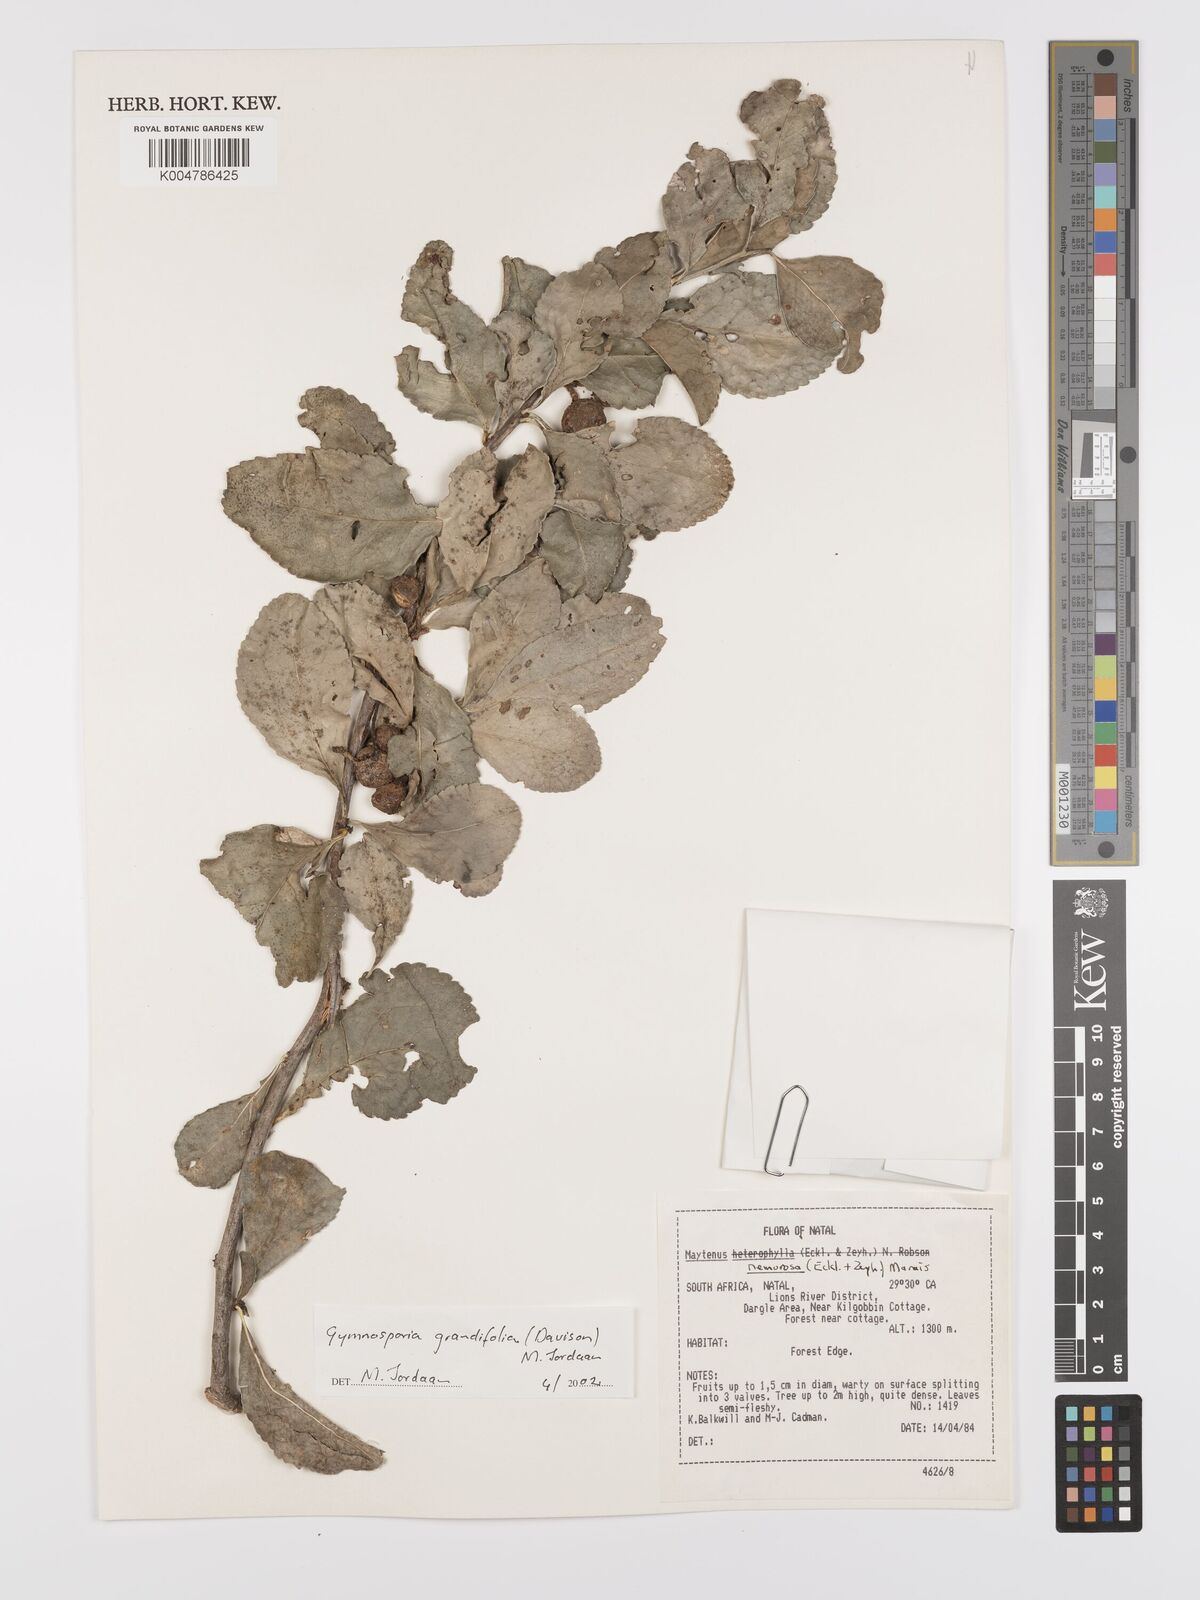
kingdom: Plantae
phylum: Tracheophyta
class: Magnoliopsida
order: Celastrales
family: Celastraceae
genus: Gymnosporia
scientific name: Gymnosporia grandifolia
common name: Large-fruited forest spike-thorn
